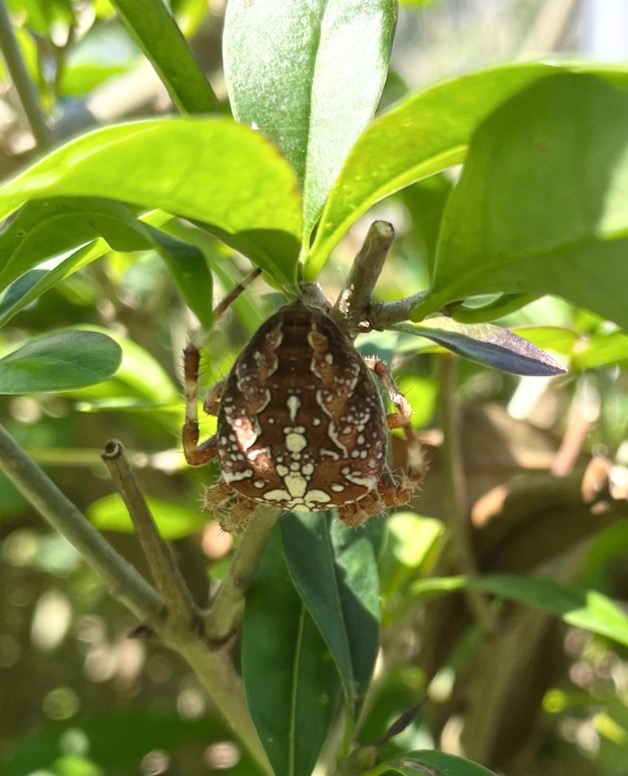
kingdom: Animalia
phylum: Arthropoda
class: Arachnida
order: Araneae
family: Araneidae
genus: Araneus
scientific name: Araneus diadematus
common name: Korsedderkop
